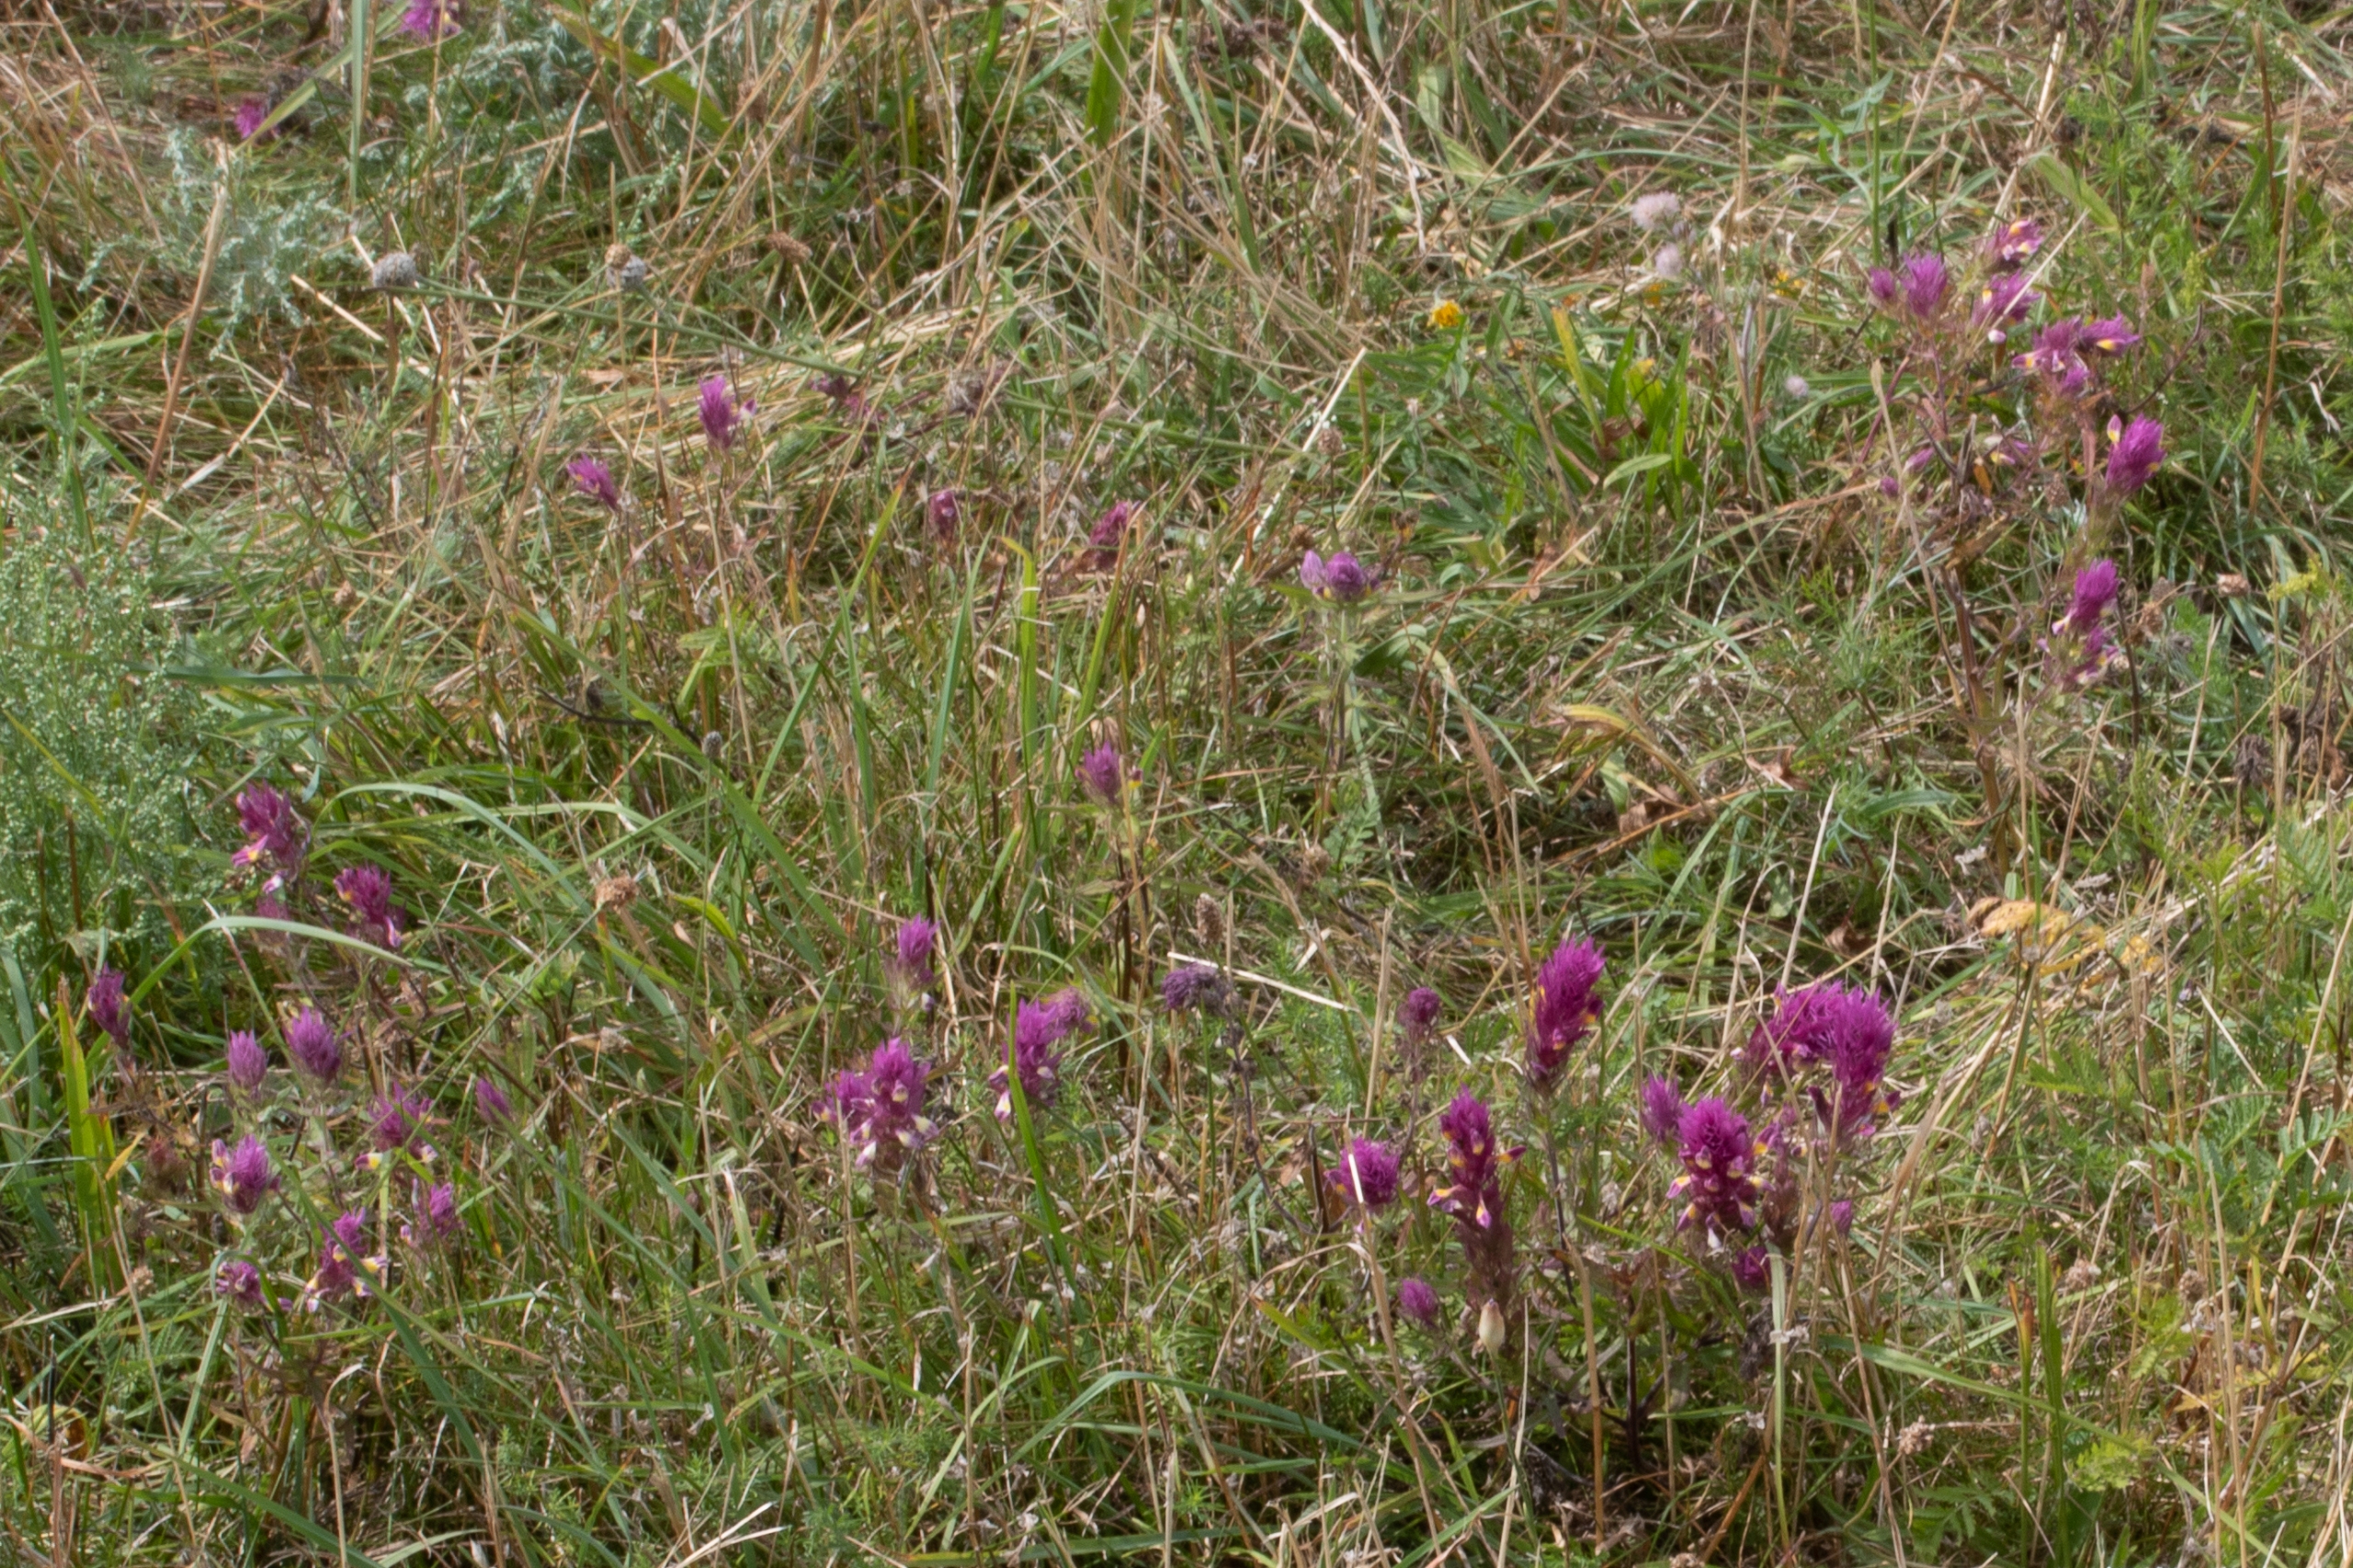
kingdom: Plantae
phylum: Tracheophyta
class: Magnoliopsida
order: Lamiales
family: Orobanchaceae
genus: Melampyrum
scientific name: Melampyrum arvense
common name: Ager-kohvede
